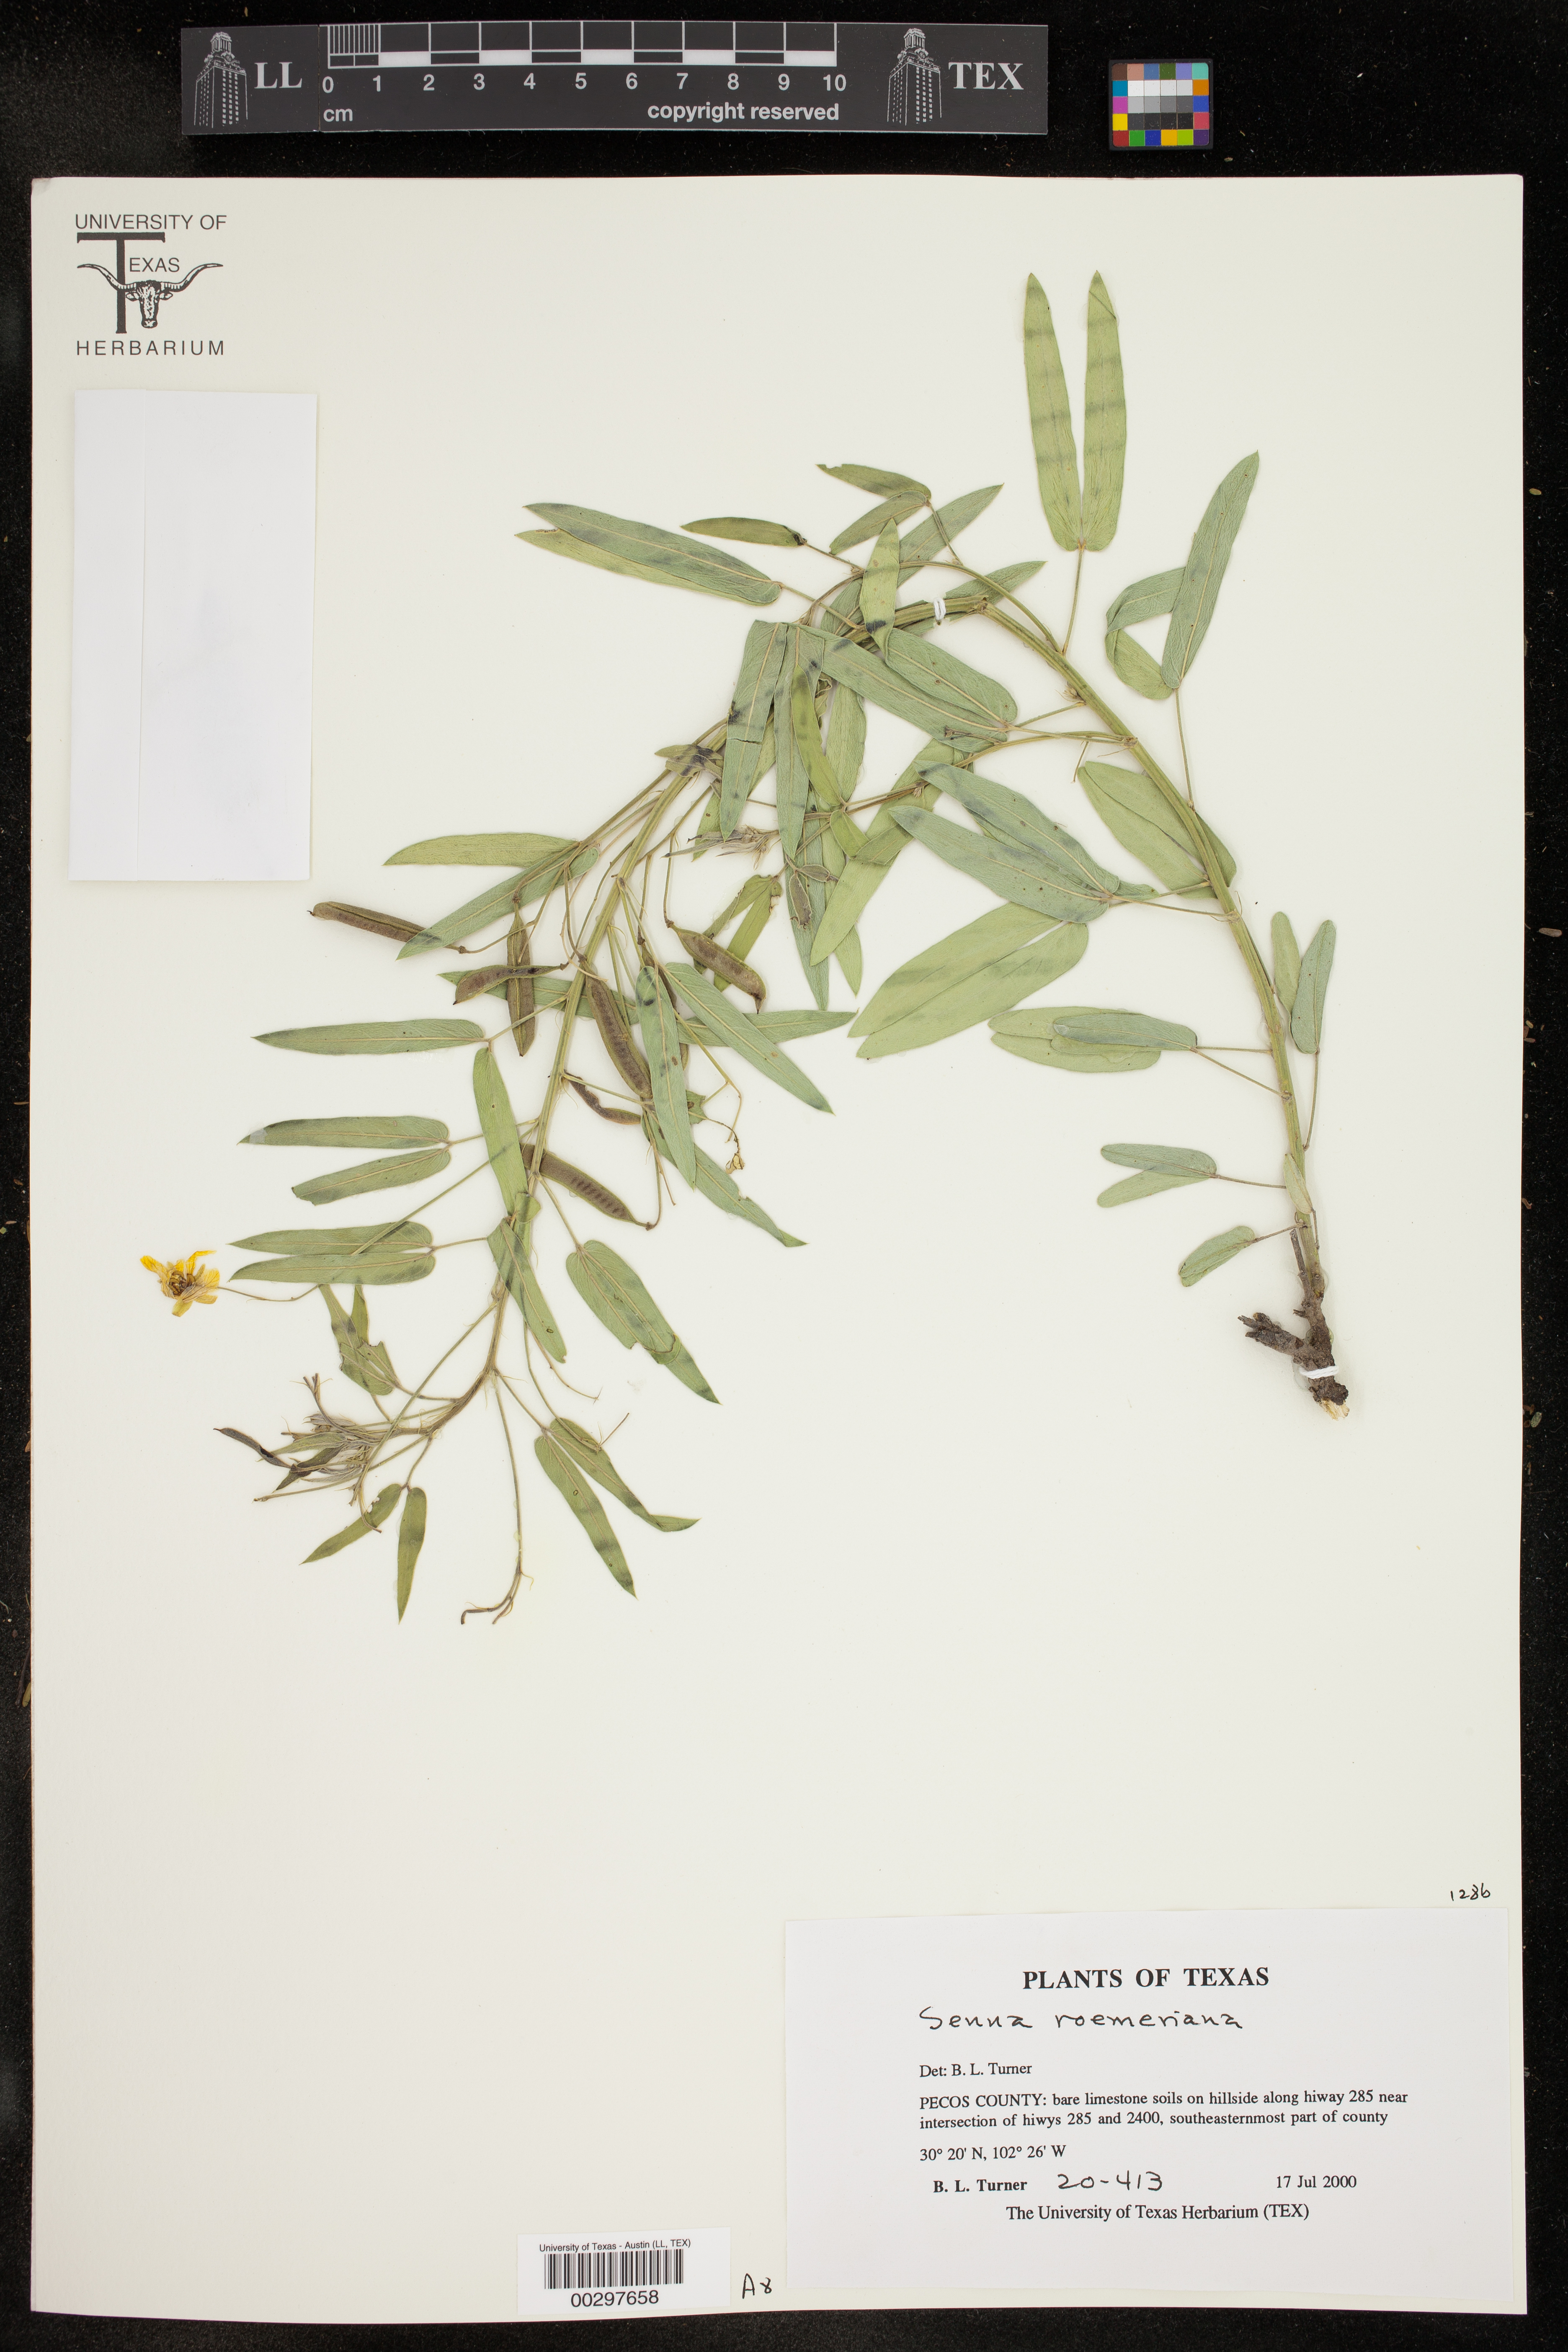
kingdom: Plantae
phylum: Tracheophyta
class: Magnoliopsida
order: Fabales
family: Fabaceae
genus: Senna
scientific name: Senna roemeriana
